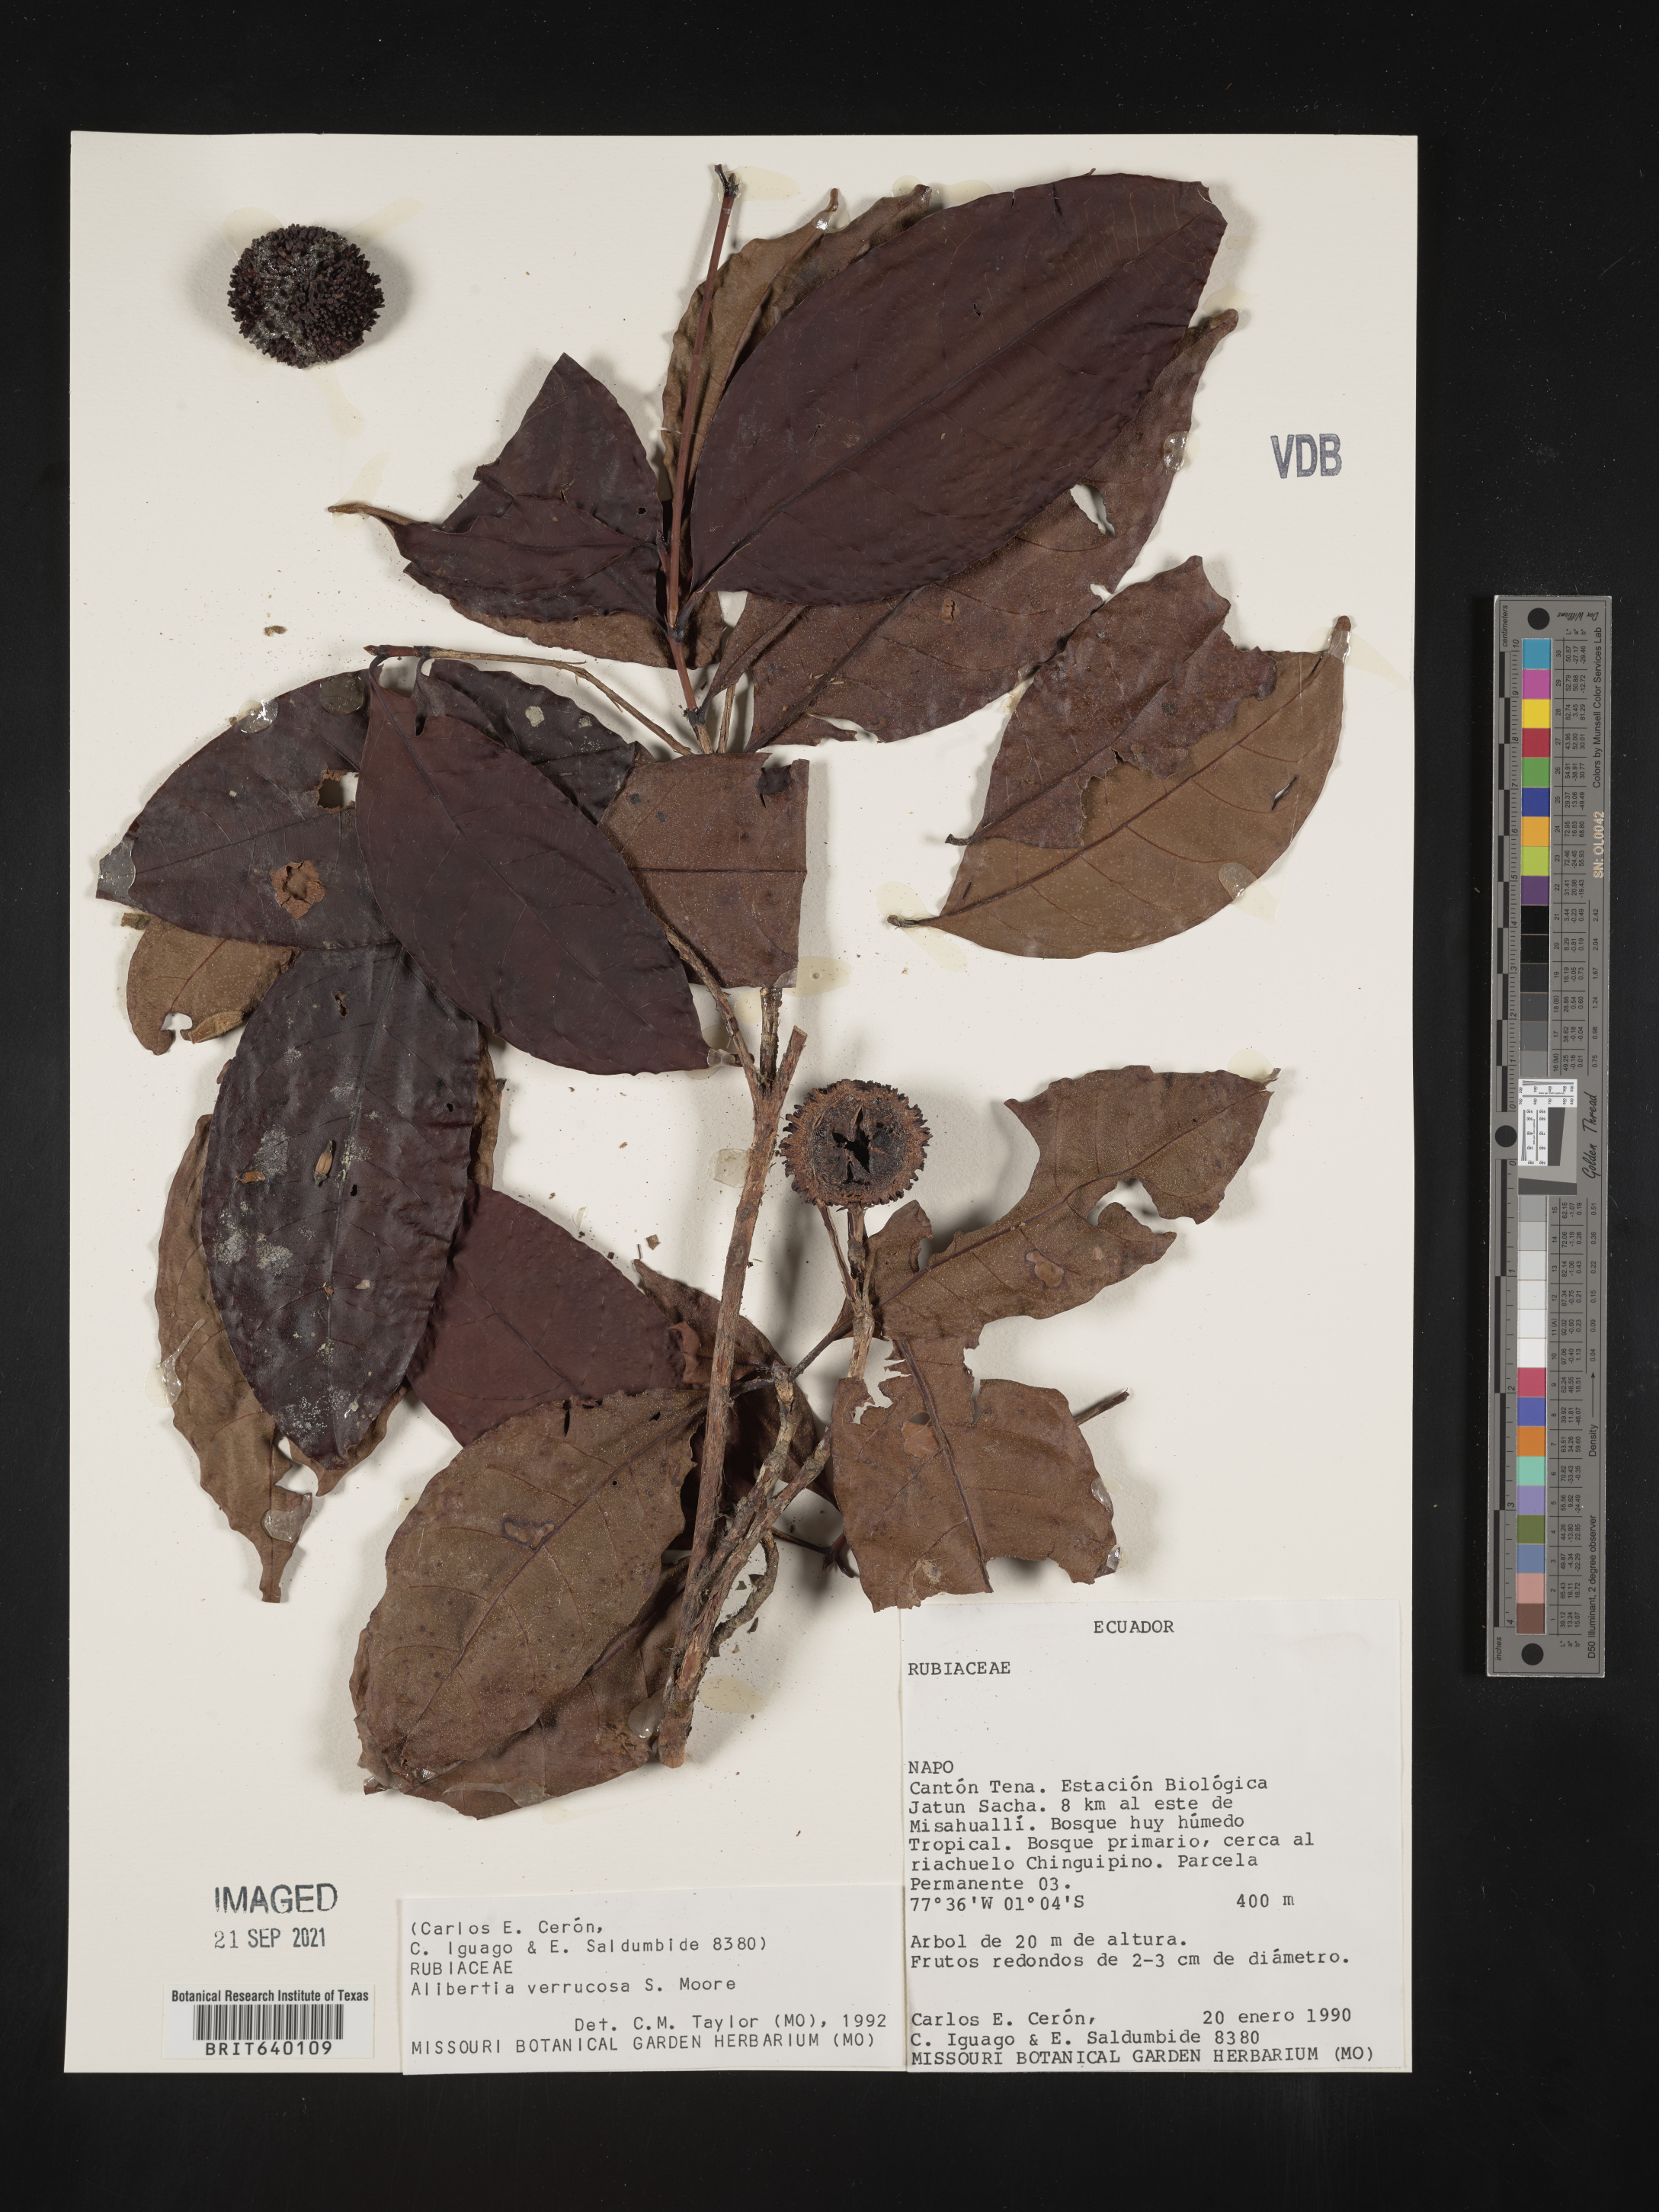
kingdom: Plantae
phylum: Tracheophyta
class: Magnoliopsida
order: Gentianales
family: Rubiaceae
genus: Alibertia
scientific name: Alibertia
